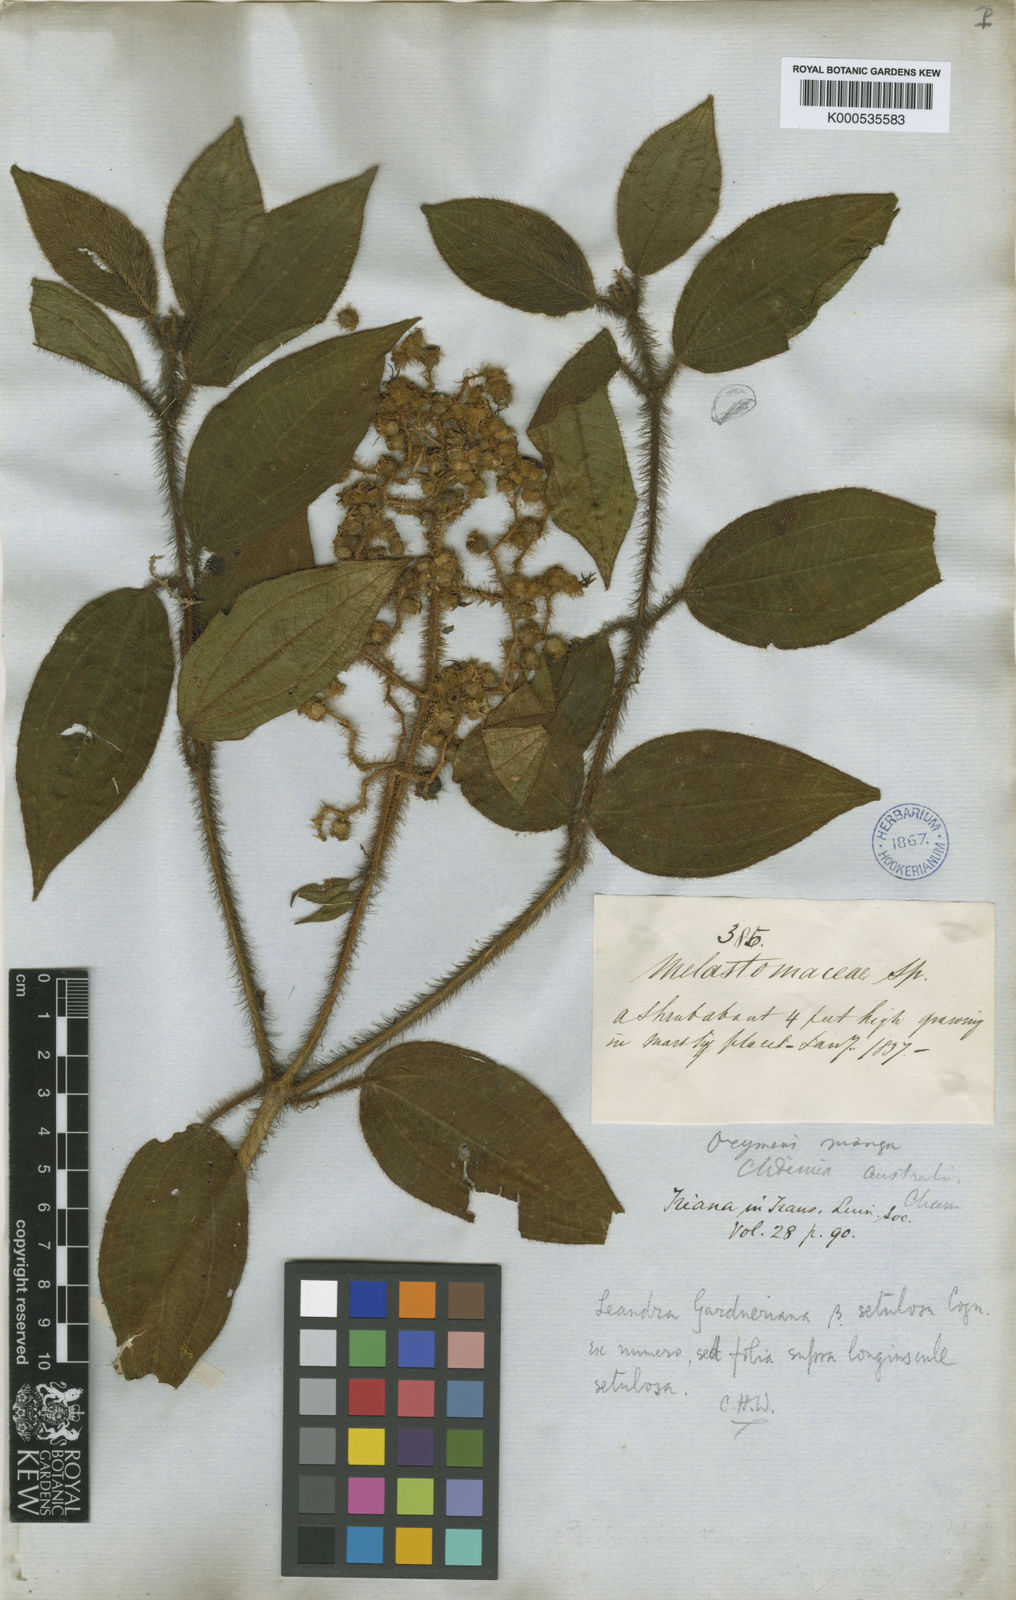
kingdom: Plantae
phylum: Tracheophyta
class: Magnoliopsida
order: Myrtales
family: Melastomataceae
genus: Miconia
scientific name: Miconia xantholasia
